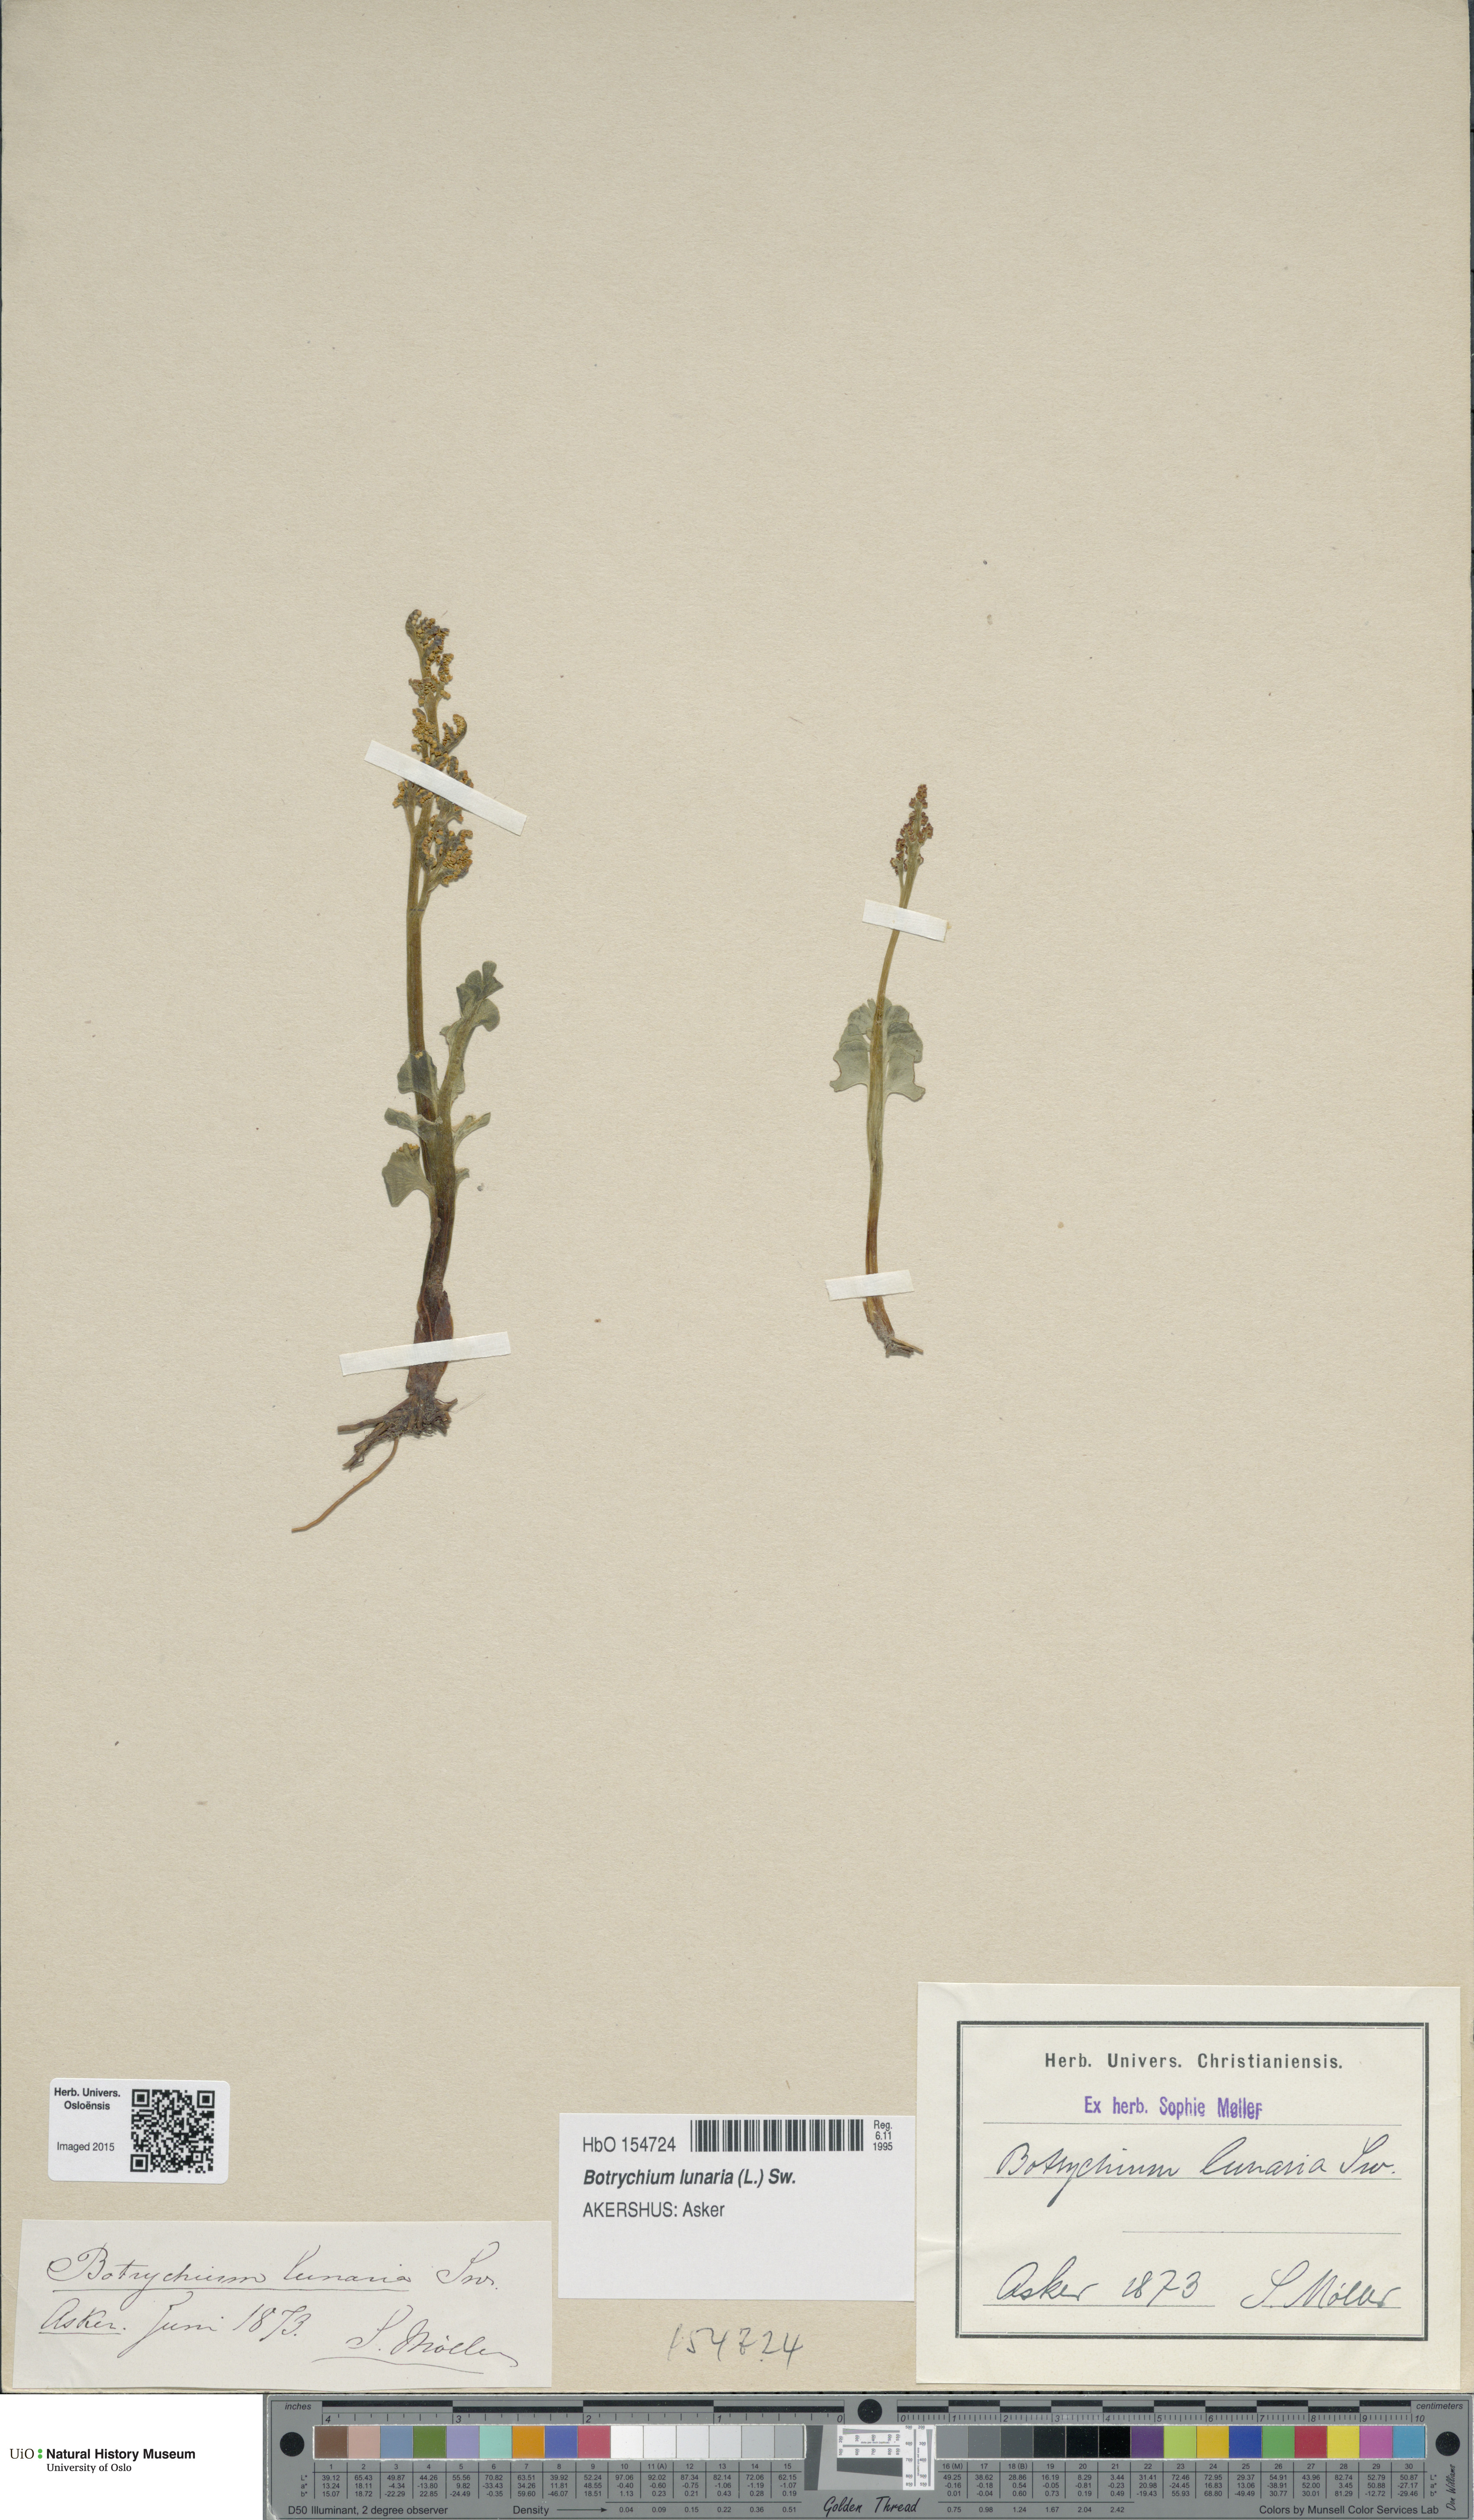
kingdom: Plantae
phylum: Tracheophyta
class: Polypodiopsida
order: Ophioglossales
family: Ophioglossaceae
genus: Botrychium
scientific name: Botrychium lunaria
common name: Moonwort
